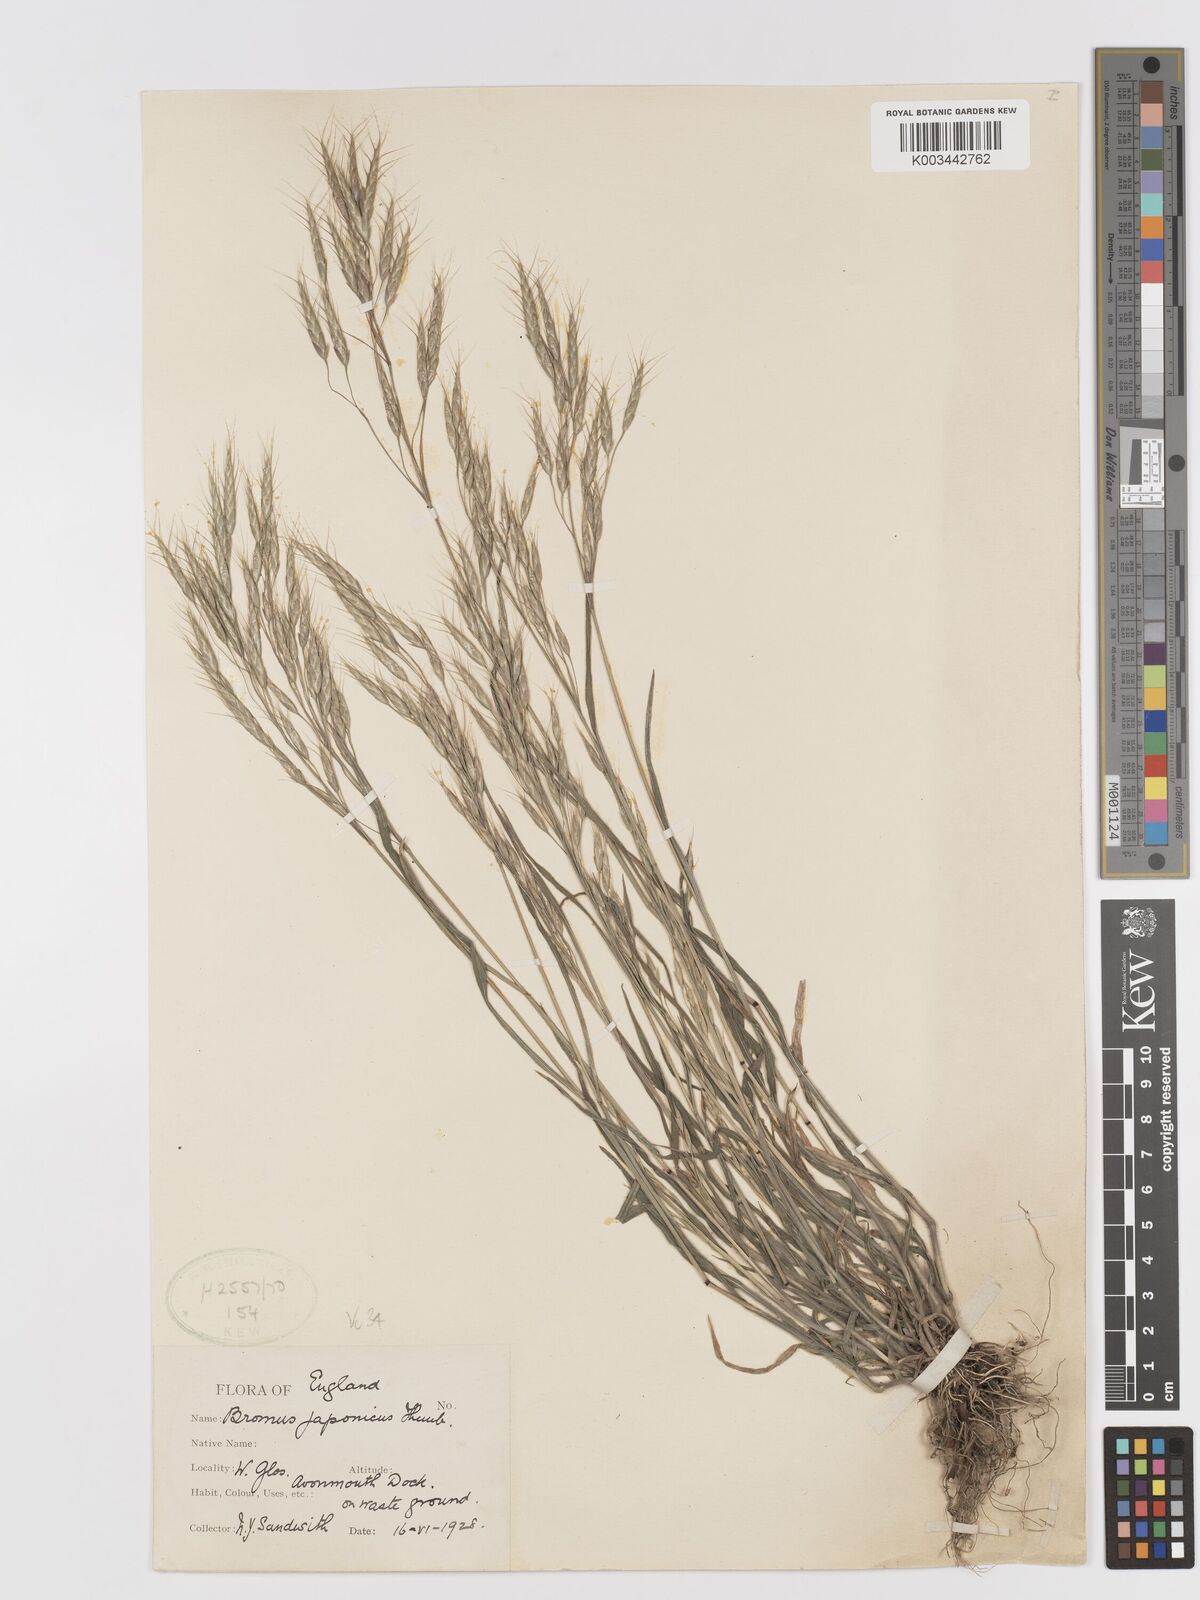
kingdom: Plantae
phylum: Tracheophyta
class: Liliopsida
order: Poales
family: Poaceae
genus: Bromus
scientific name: Bromus japonicus
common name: Japanese brome
